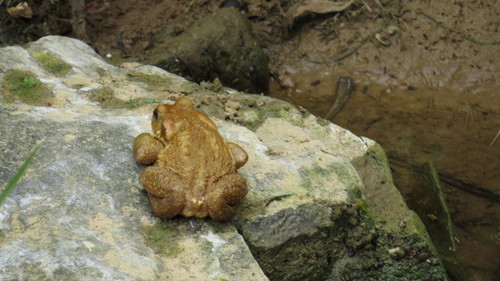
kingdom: Animalia
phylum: Chordata
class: Amphibia
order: Anura
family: Bufonidae
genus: Bufo
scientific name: Bufo spinosus
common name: Western common toad
